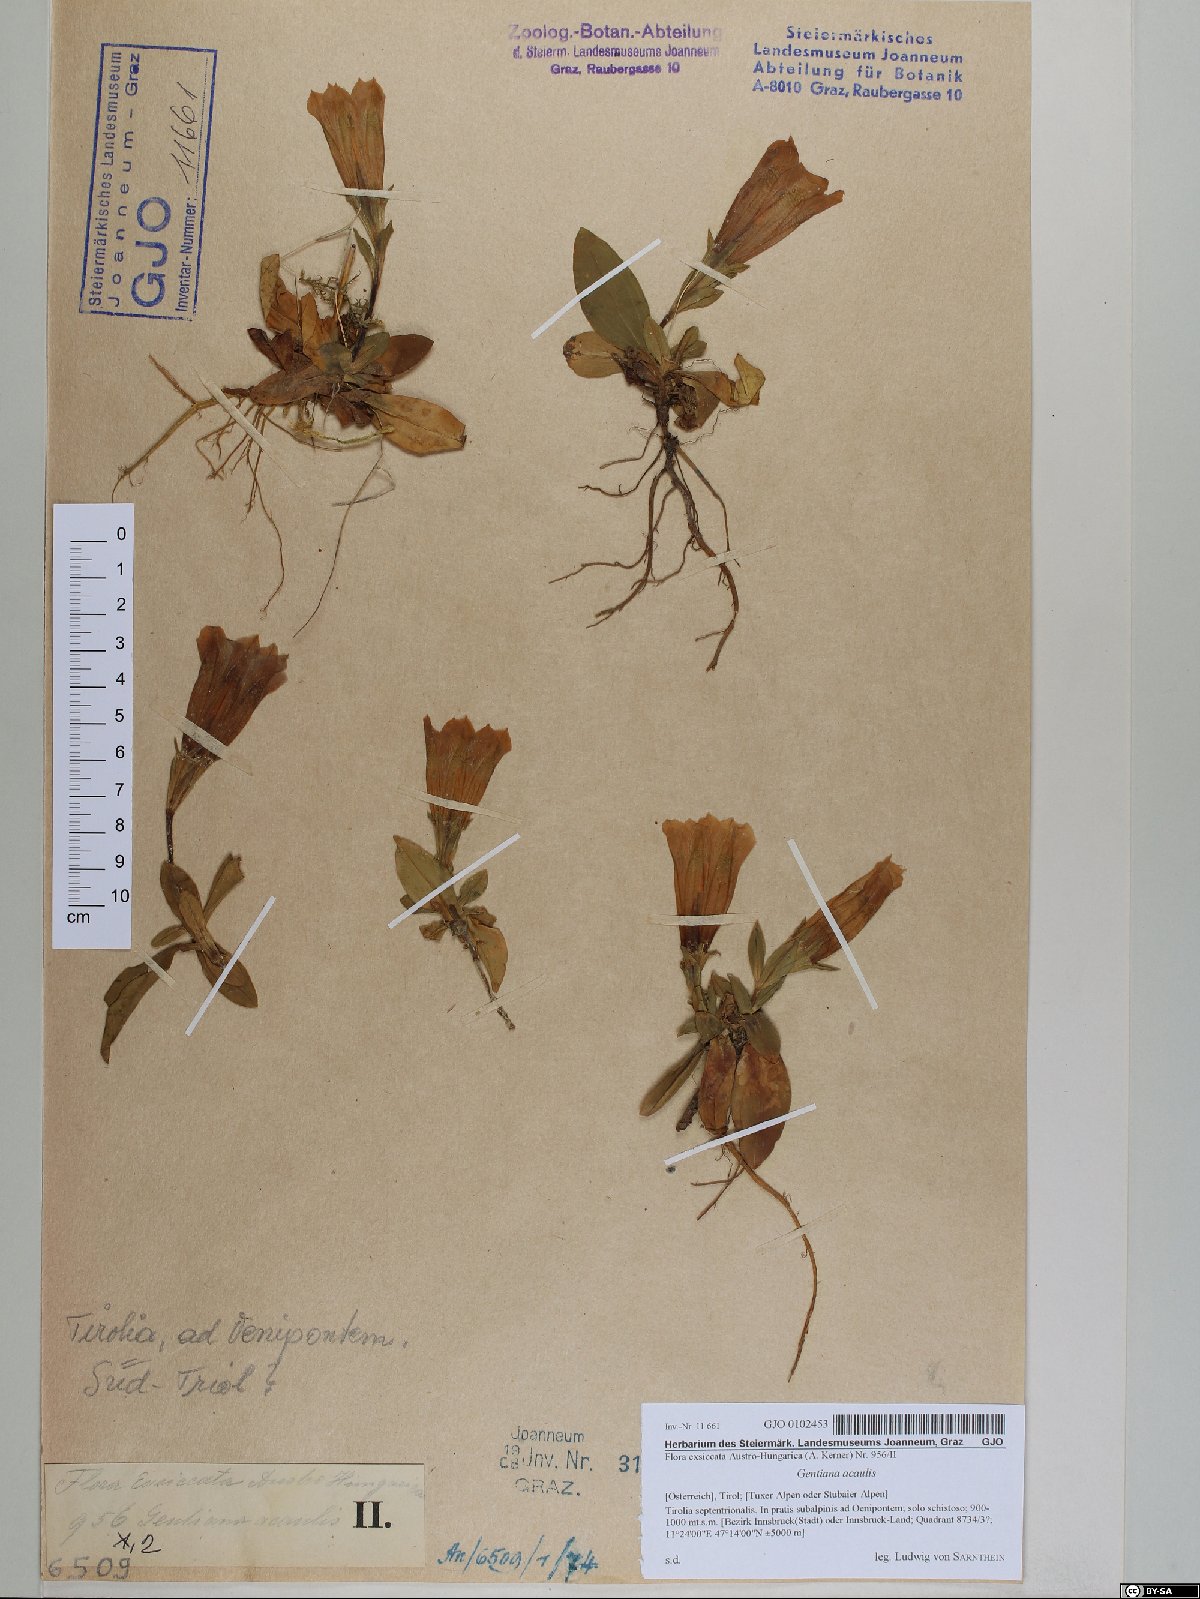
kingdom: Plantae
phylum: Tracheophyta
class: Magnoliopsida
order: Gentianales
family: Gentianaceae
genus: Gentiana
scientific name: Gentiana acaulis
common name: Trumpet gentian
